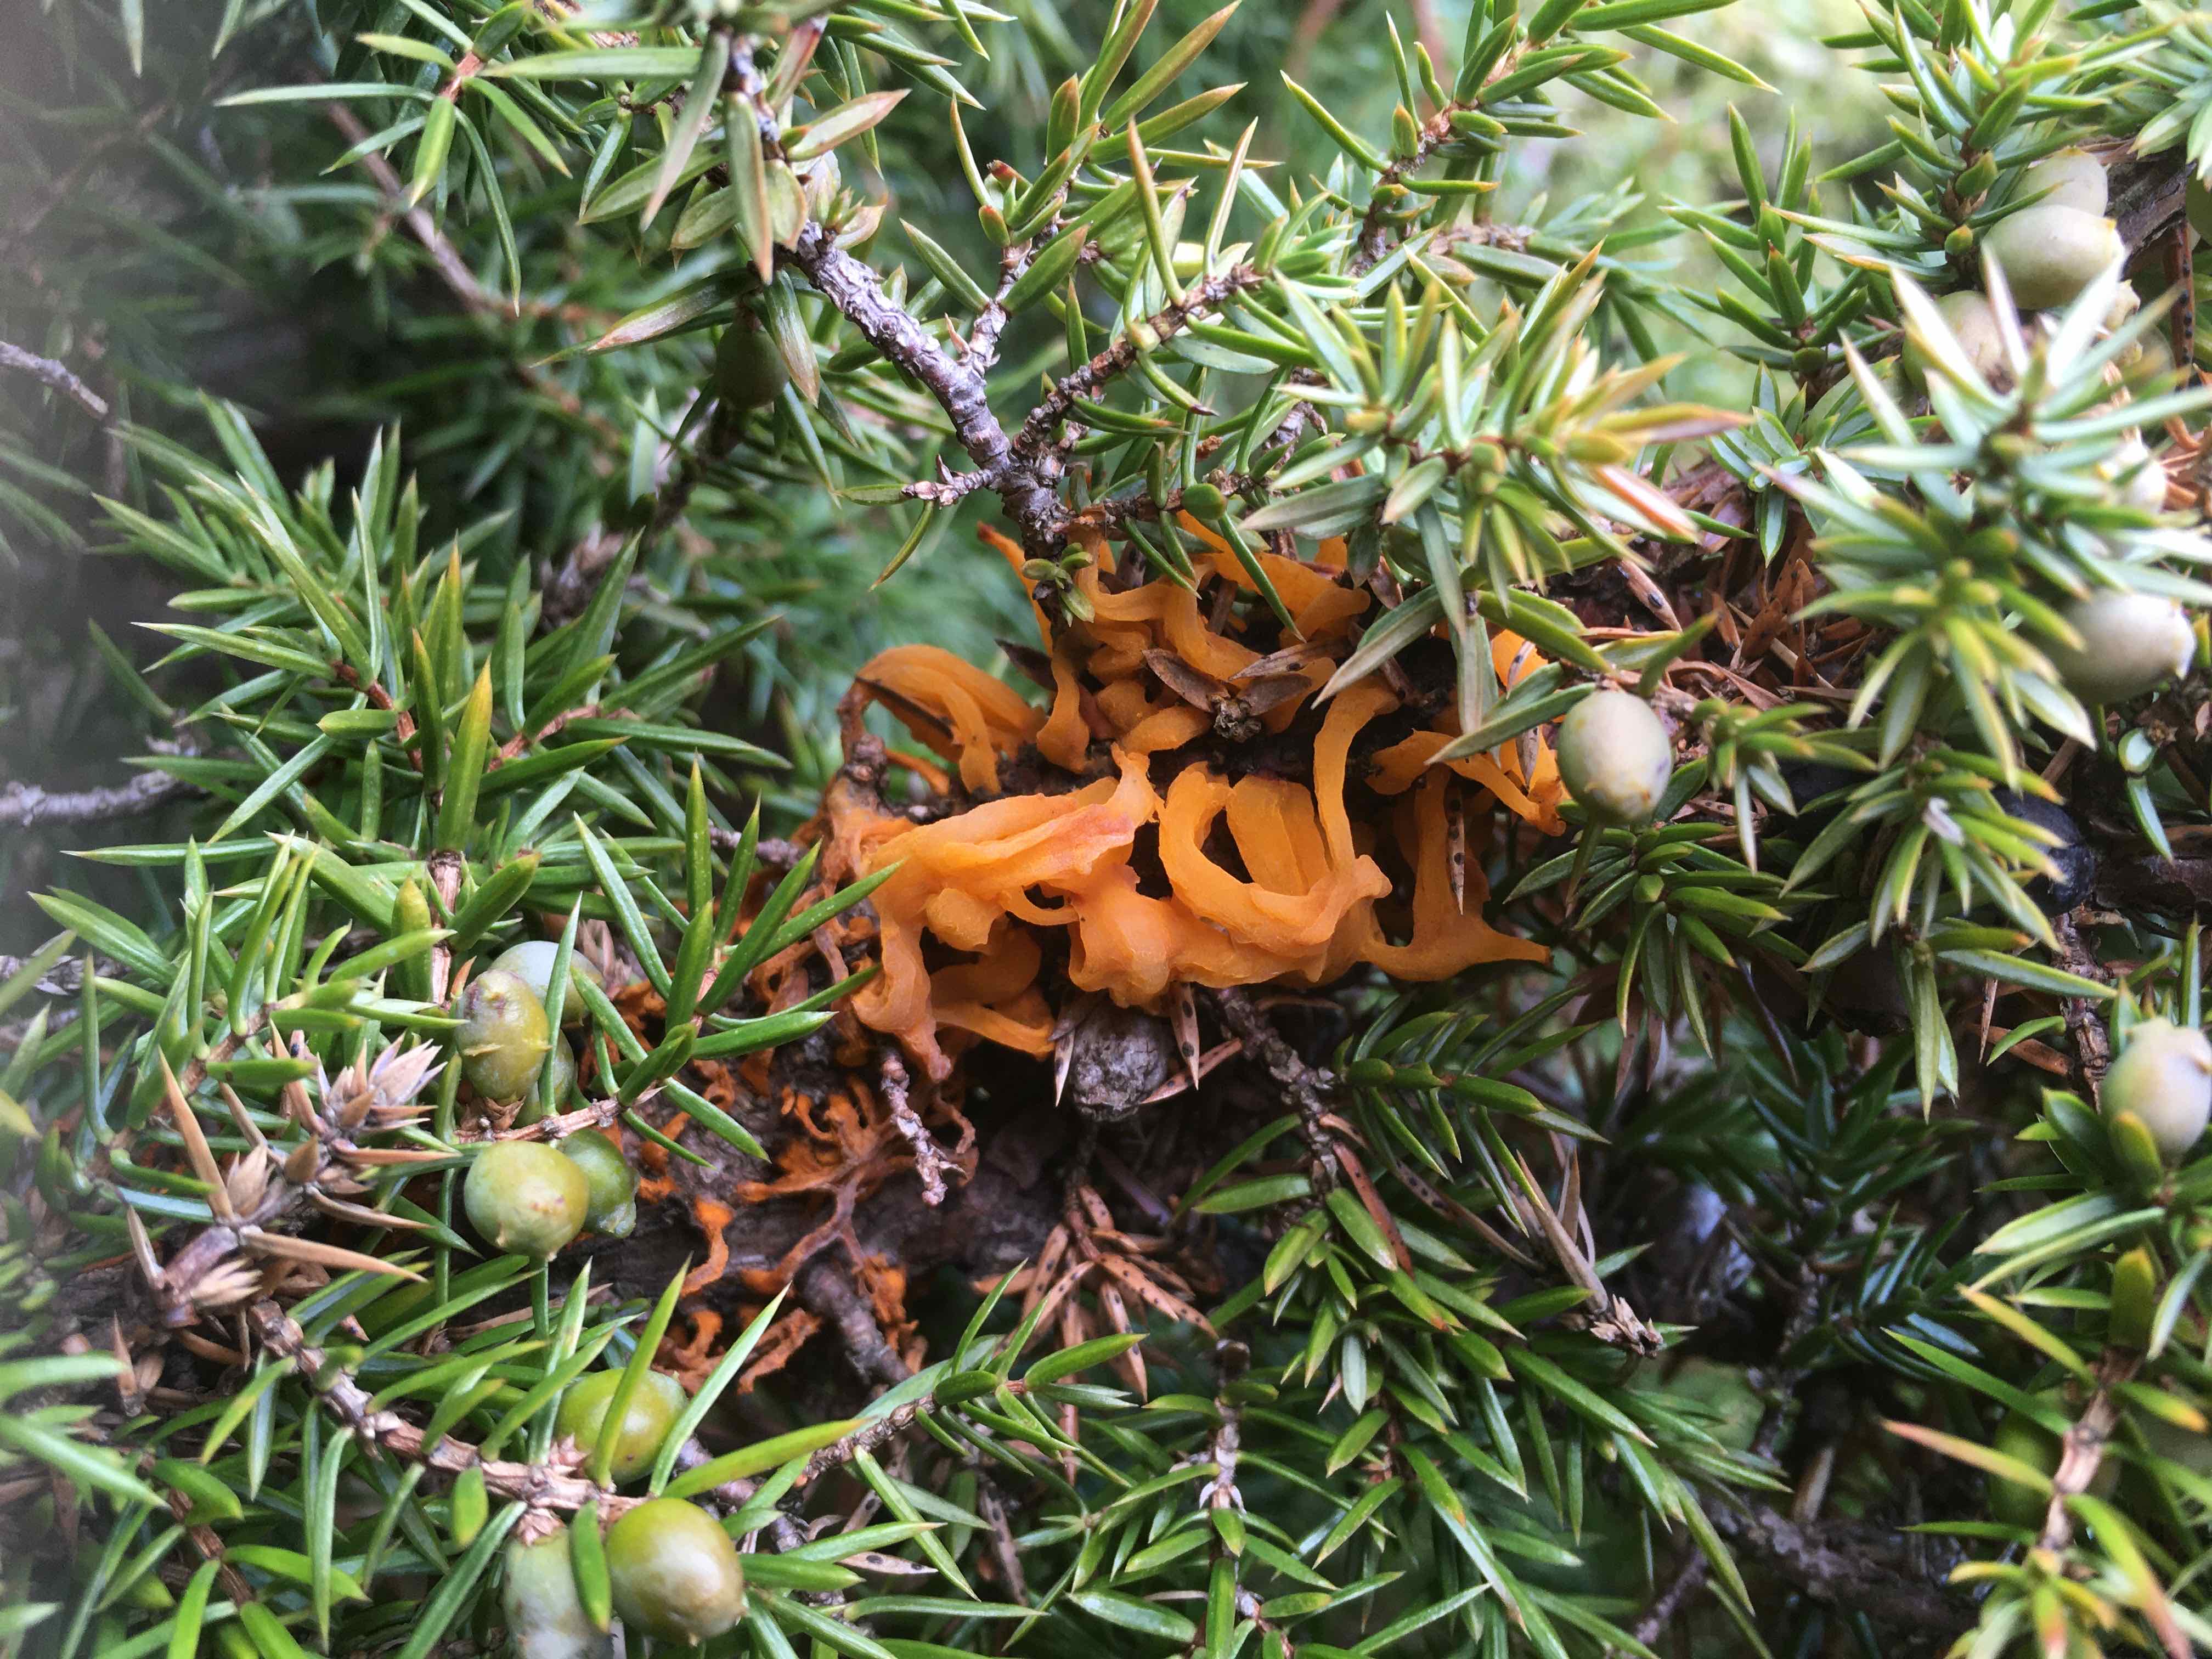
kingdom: Fungi
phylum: Basidiomycota
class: Pucciniomycetes
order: Pucciniales
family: Gymnosporangiaceae
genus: Gymnosporangium
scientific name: Gymnosporangium clavariiforme
